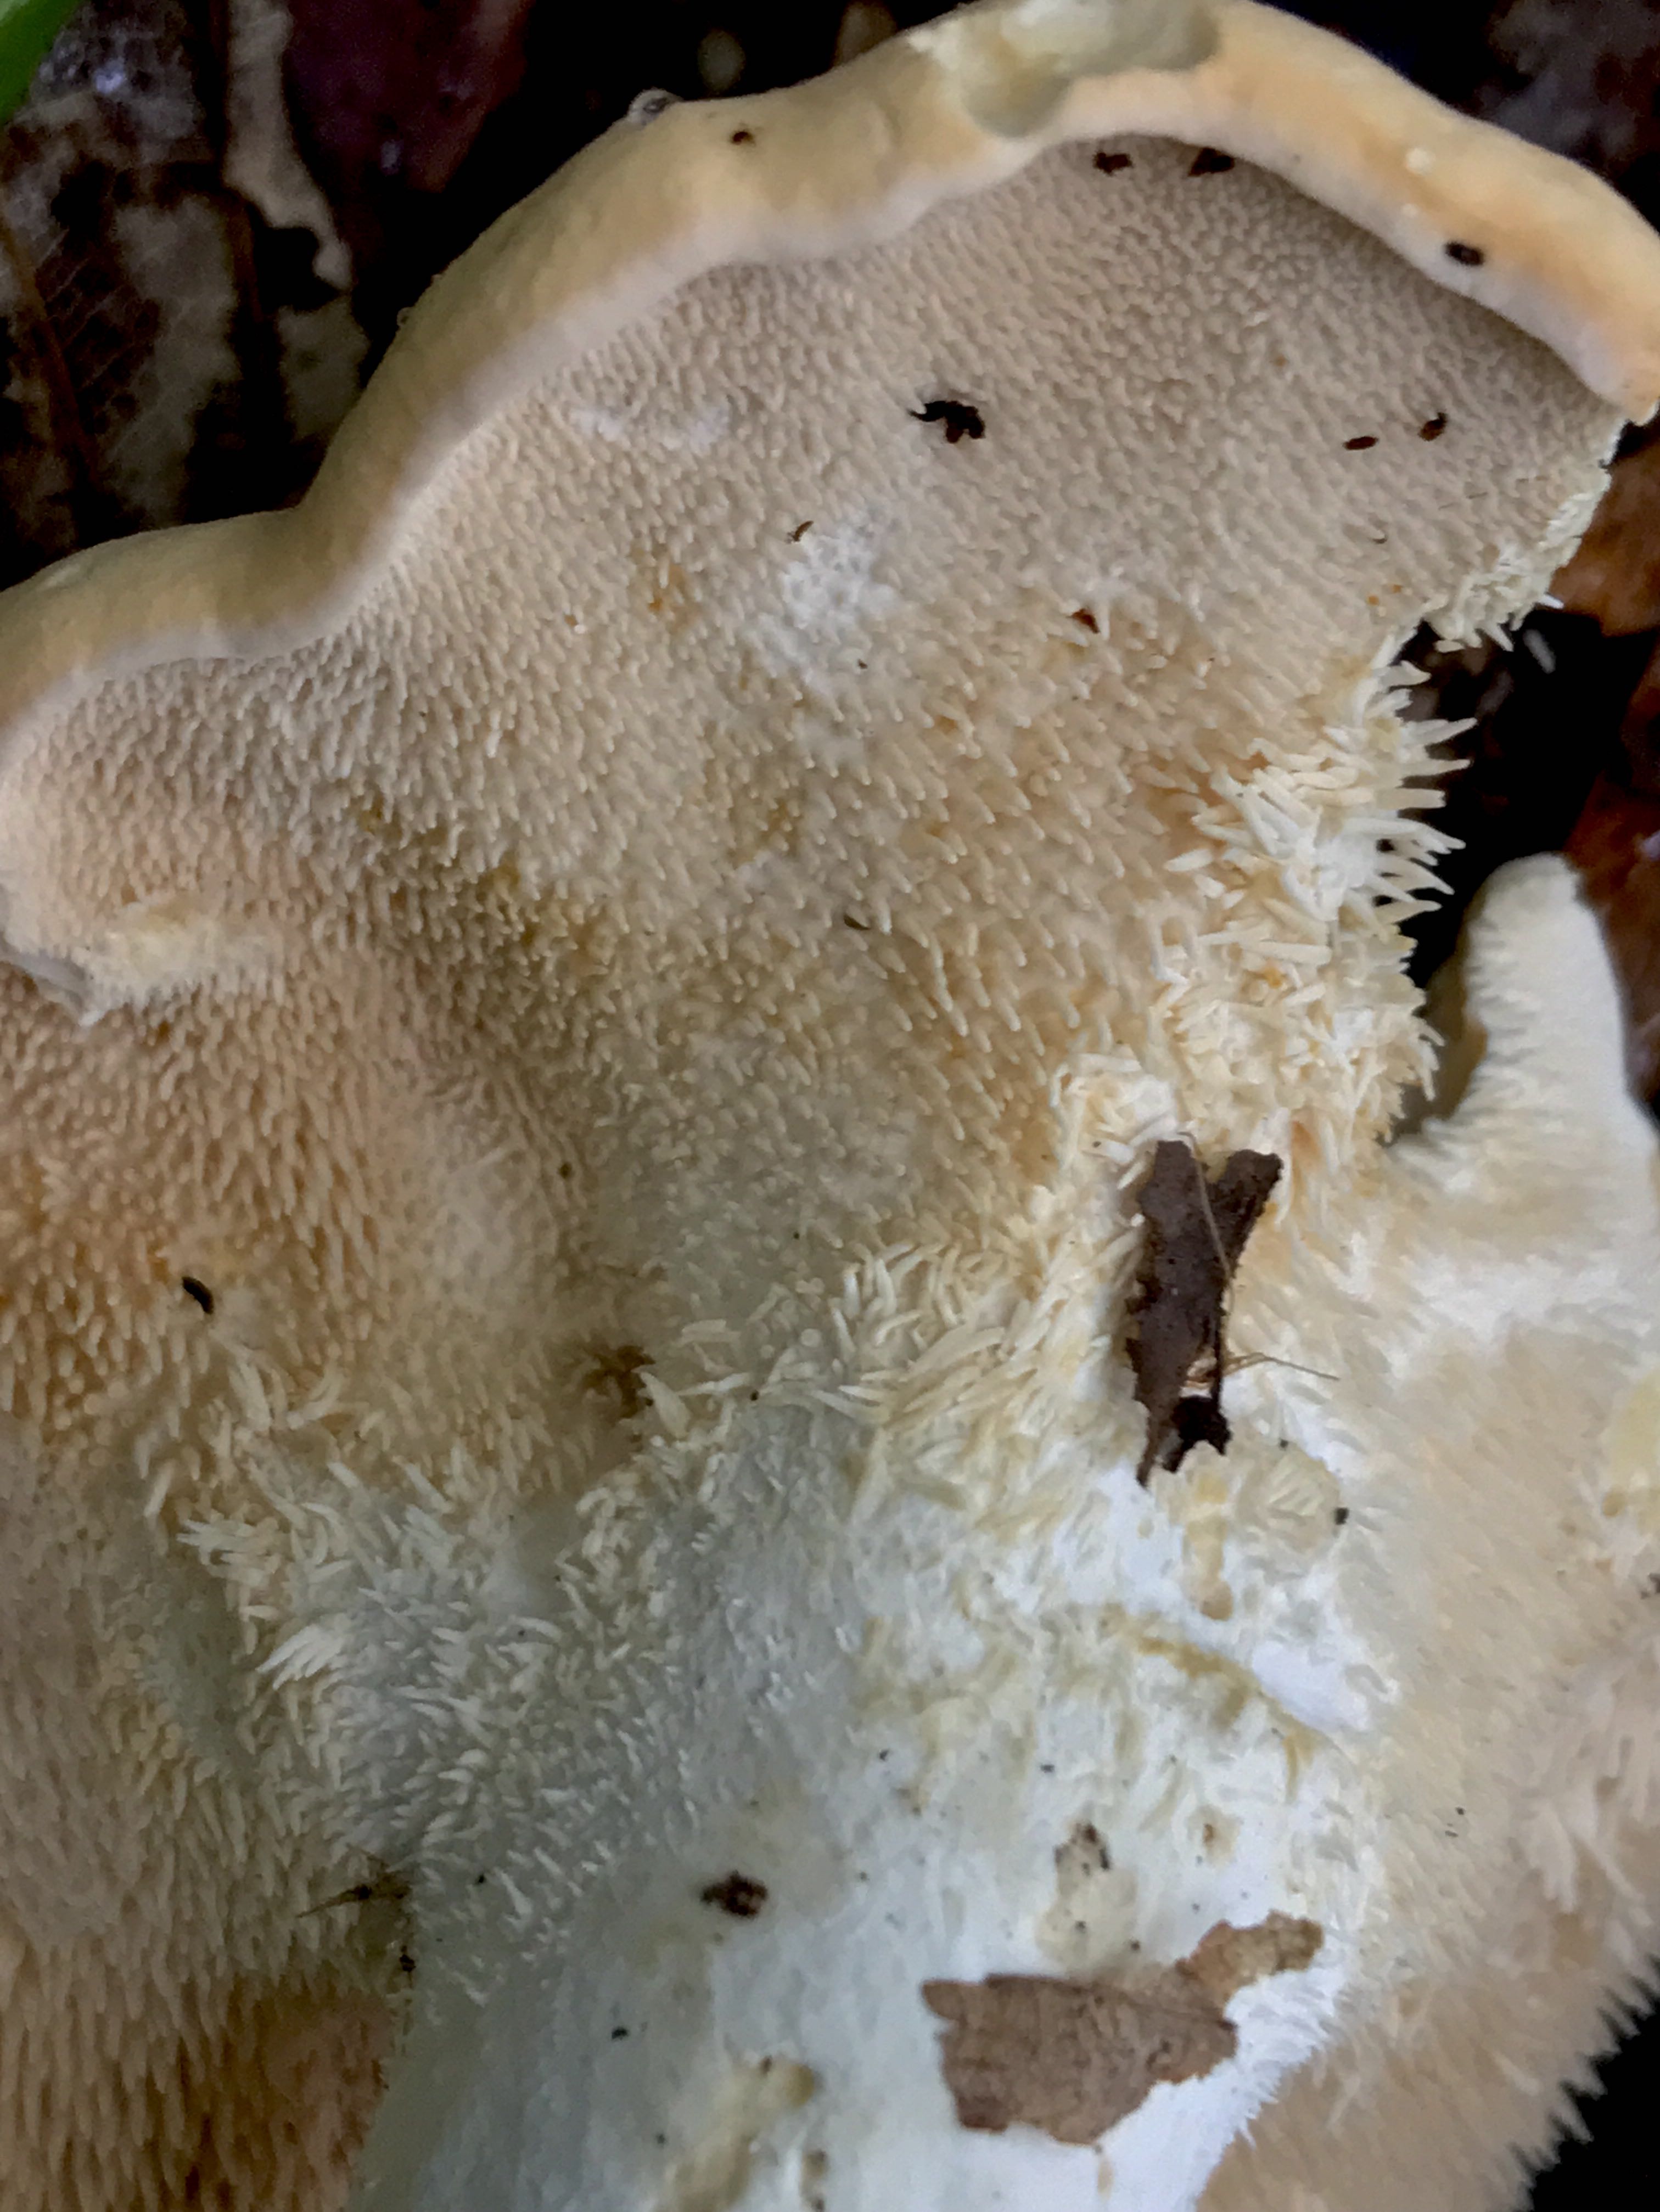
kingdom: Fungi
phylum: Basidiomycota
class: Agaricomycetes
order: Cantharellales
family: Hydnaceae
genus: Hydnum
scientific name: Hydnum repandum
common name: almindelig pigsvamp
